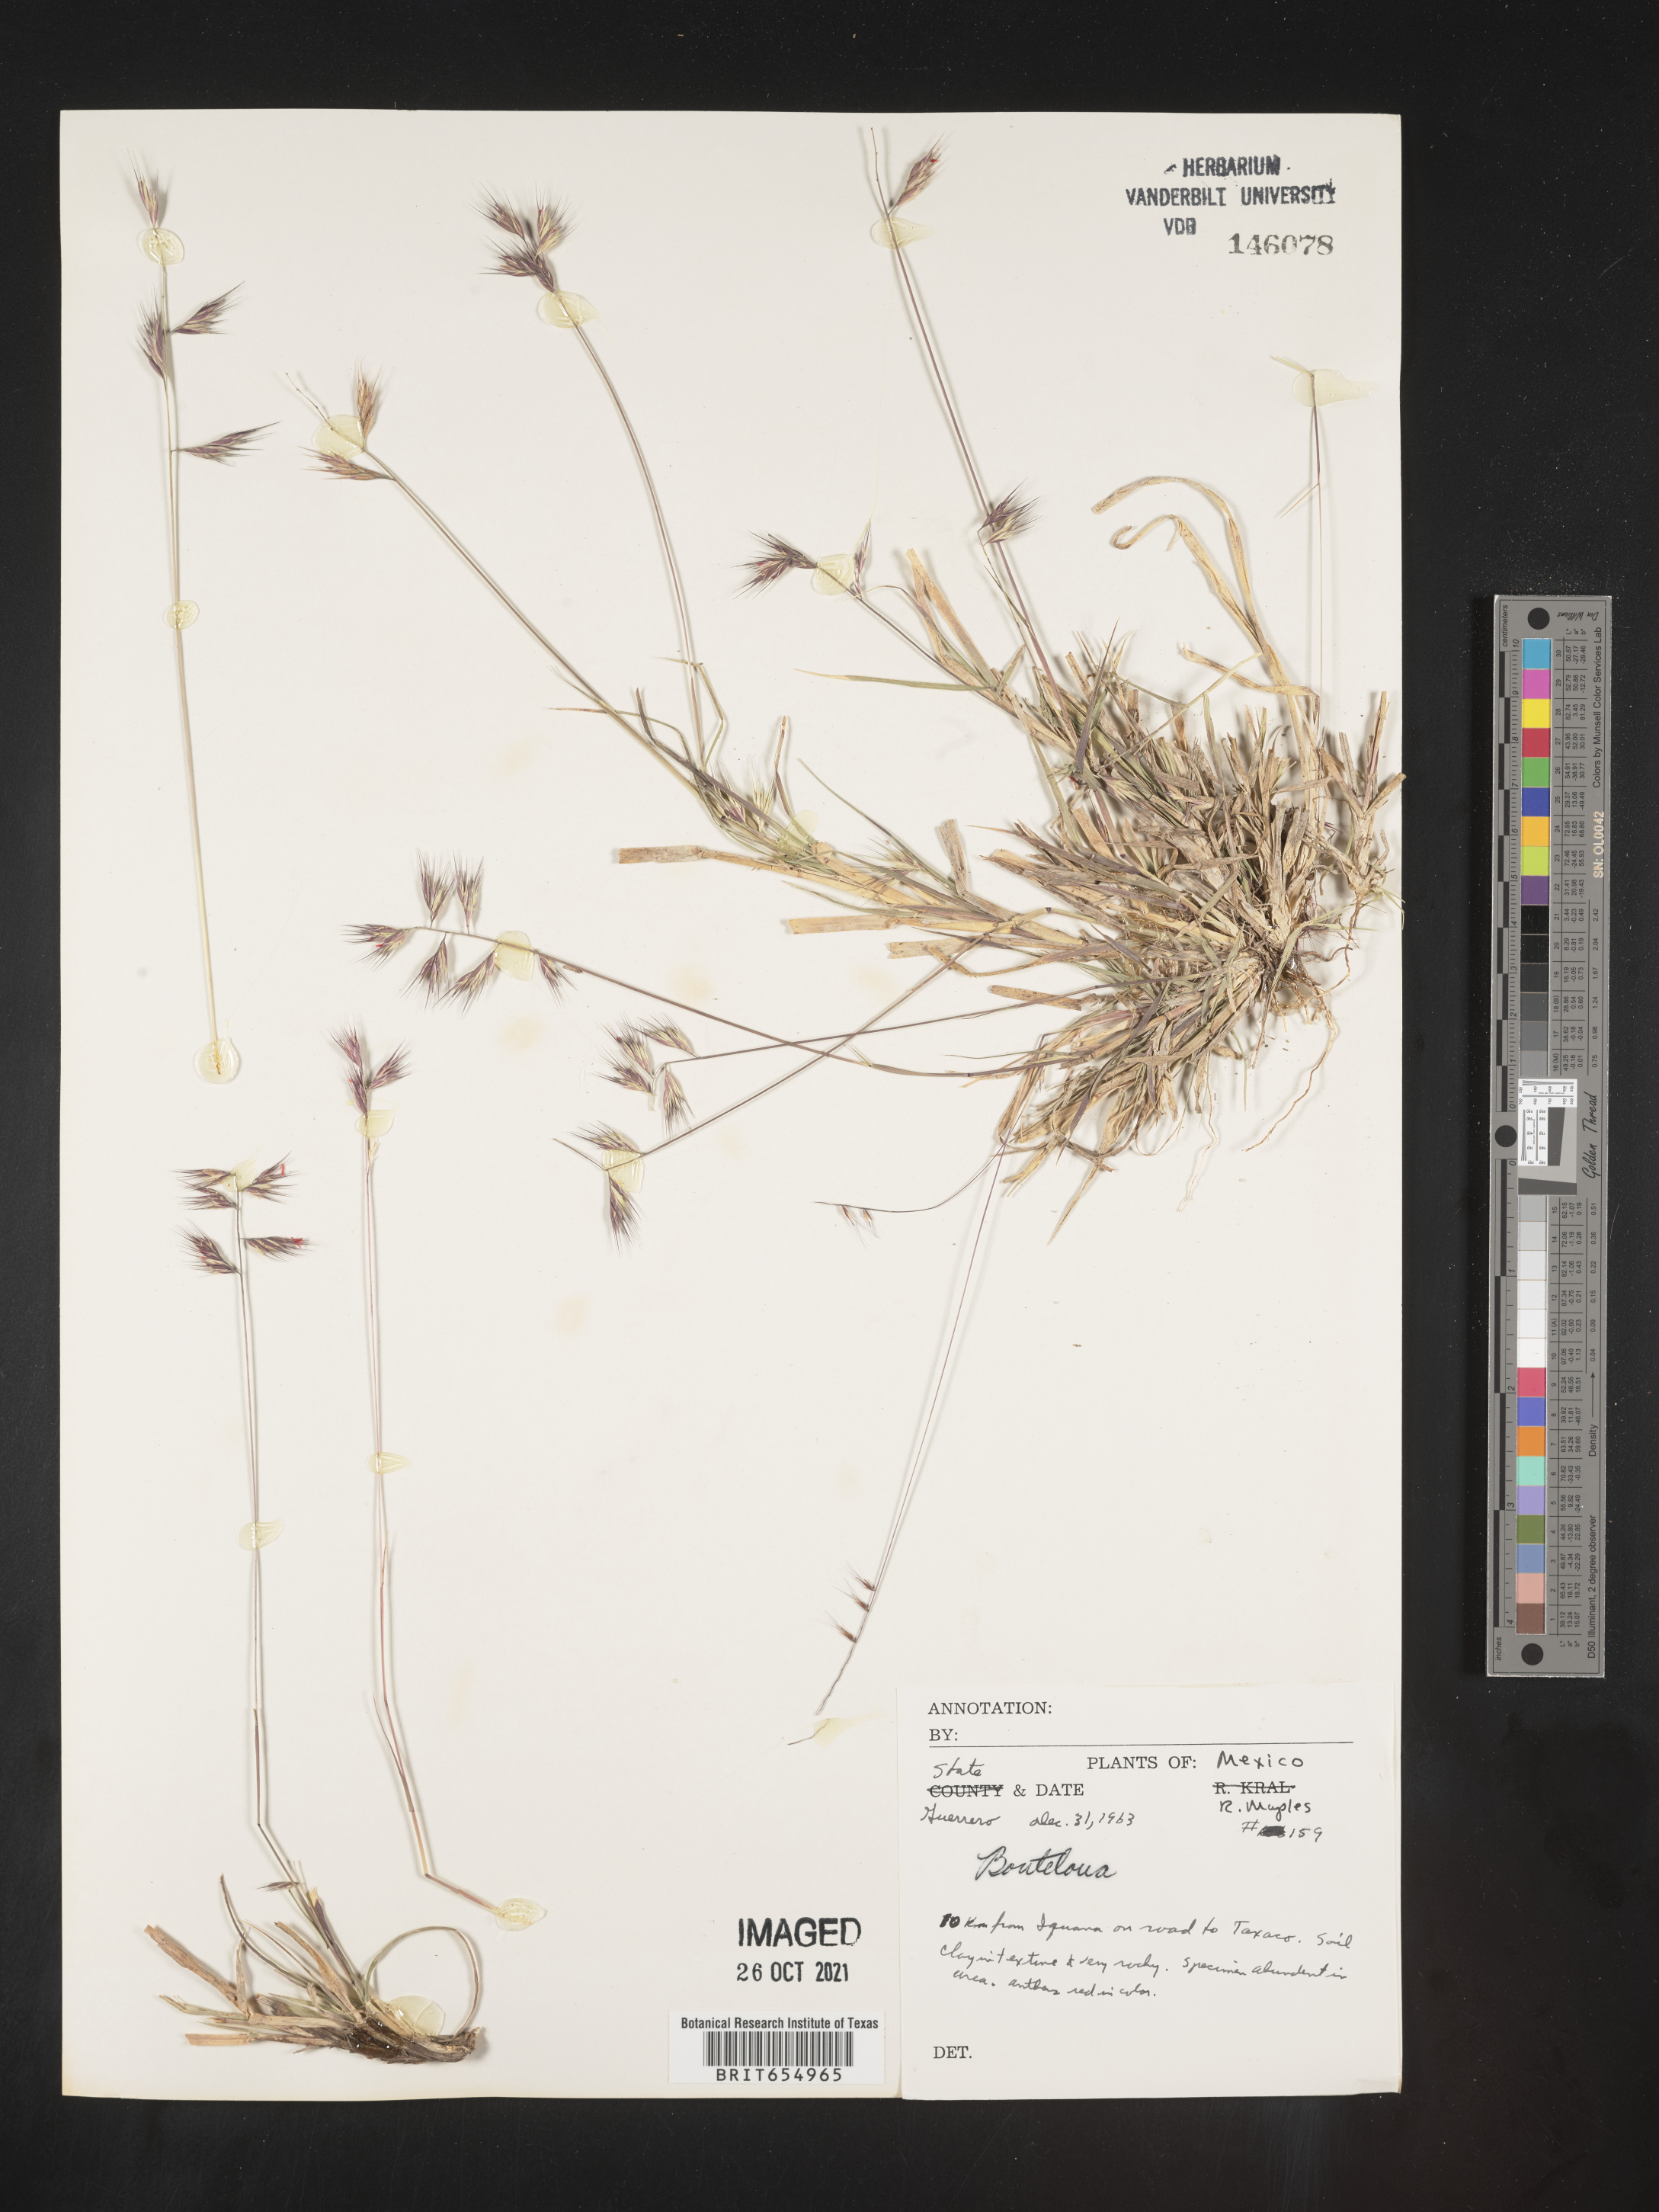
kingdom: Plantae
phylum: Tracheophyta
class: Liliopsida
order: Poales
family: Poaceae
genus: Bouteloua
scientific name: Bouteloua
